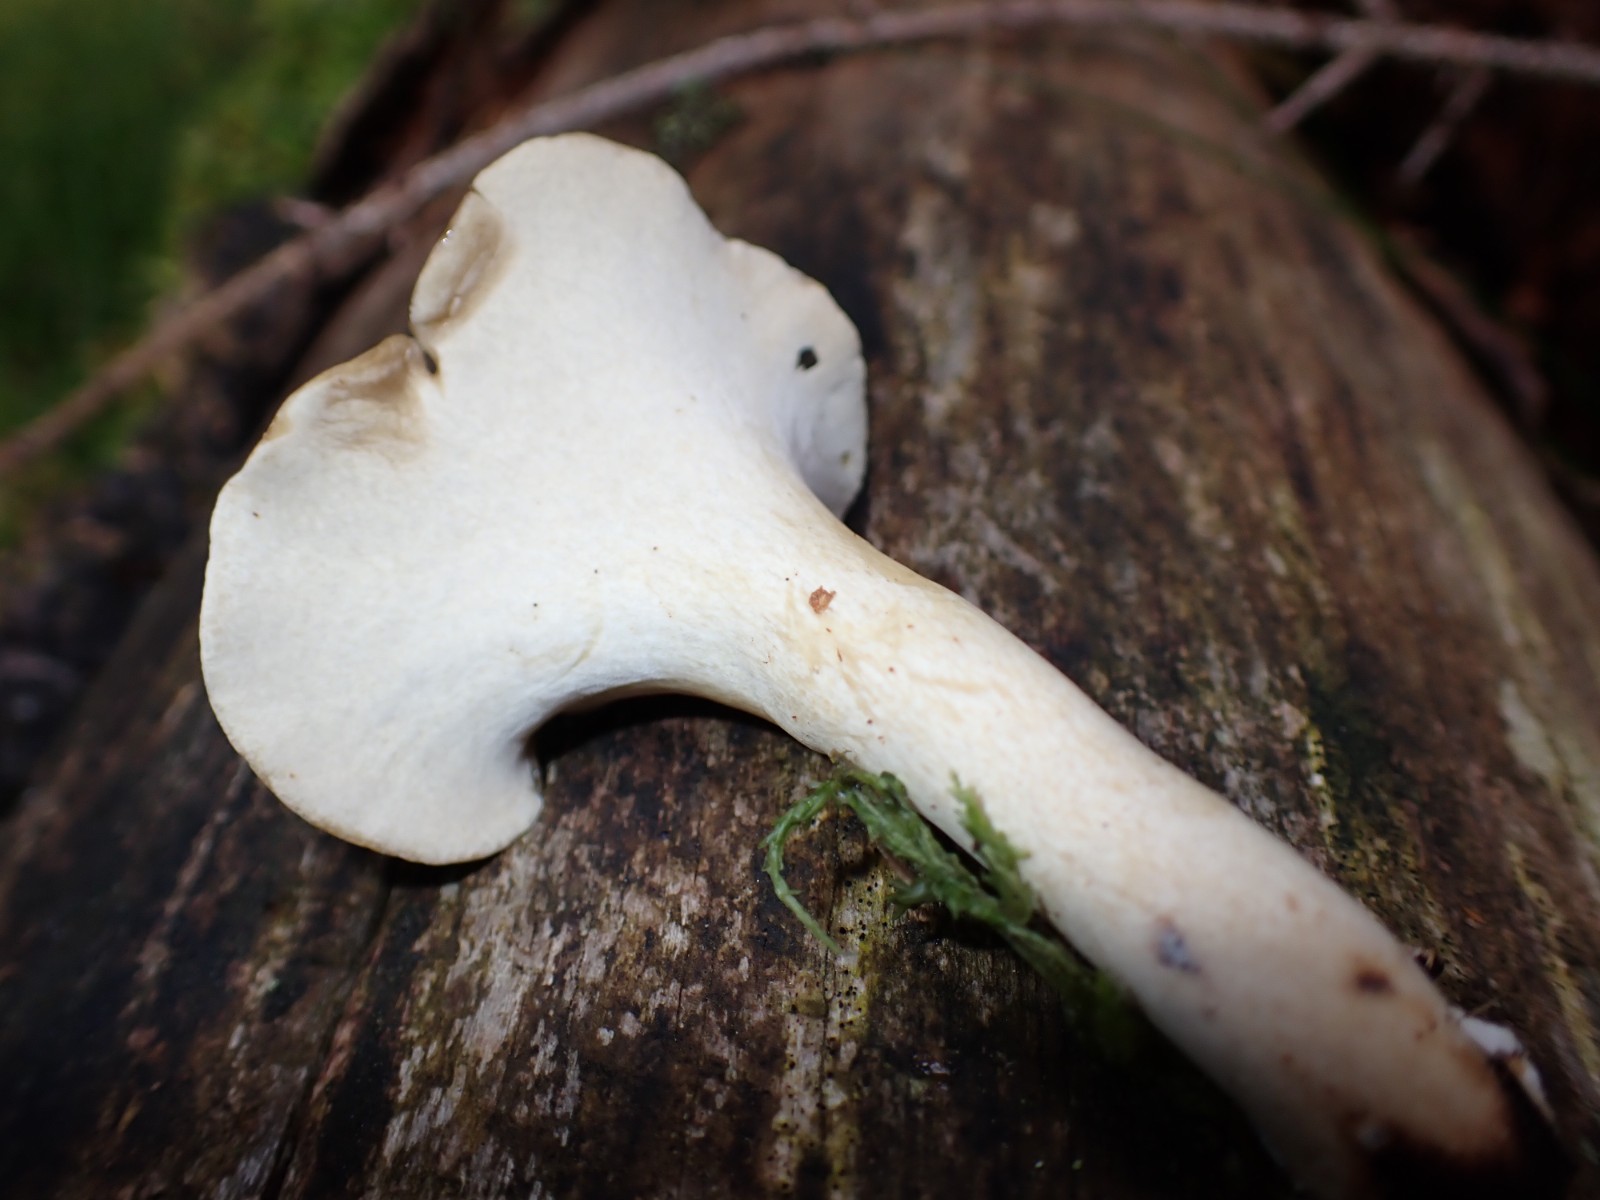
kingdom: Fungi
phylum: Basidiomycota
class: Agaricomycetes
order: Polyporales
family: Polyporaceae
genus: Cerioporus
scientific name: Cerioporus varius
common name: foranderlig stilkporesvamp
